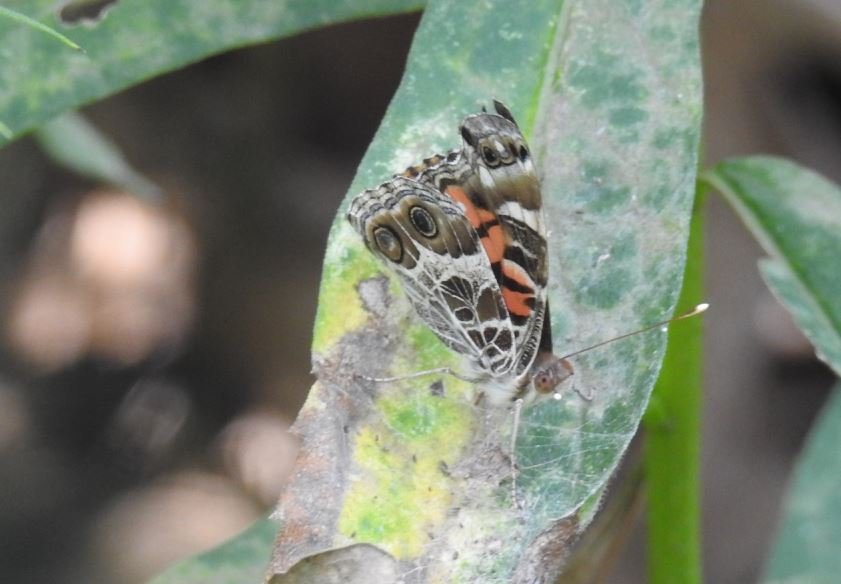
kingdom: Animalia
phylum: Arthropoda
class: Insecta
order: Lepidoptera
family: Nymphalidae
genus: Vanessa
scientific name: Vanessa virginiensis
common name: American Lady
